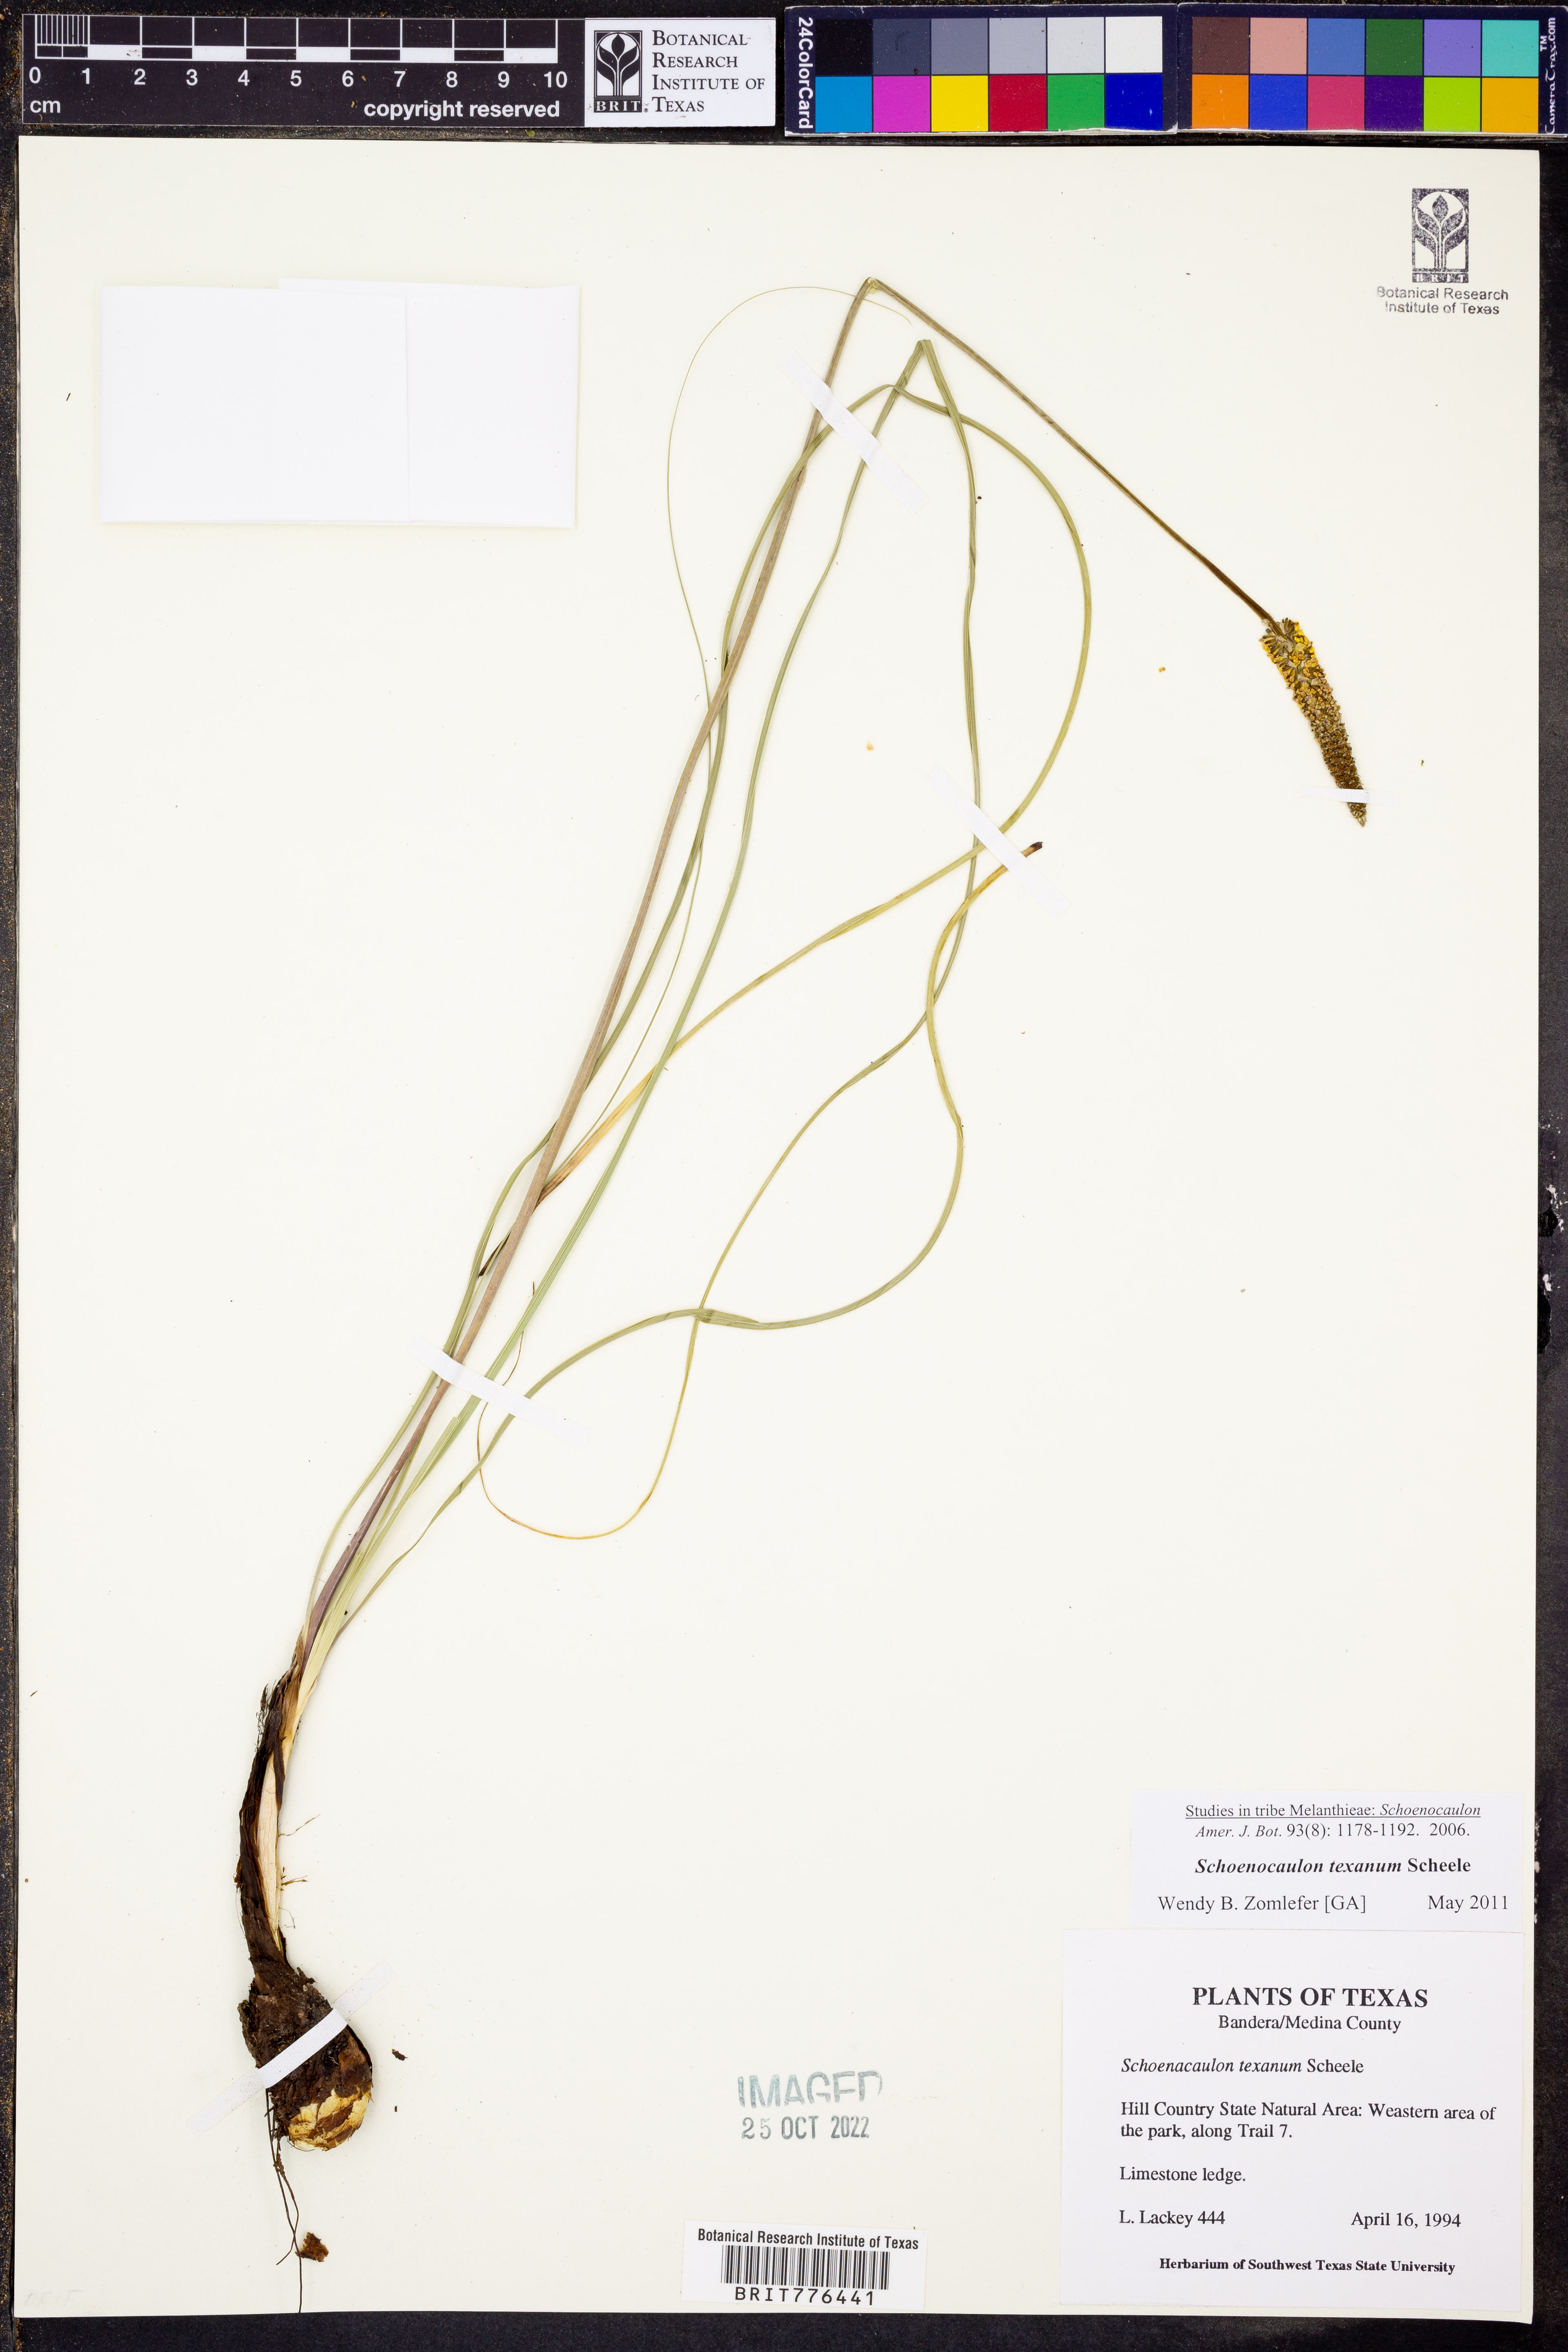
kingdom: Plantae
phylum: Tracheophyta
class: Liliopsida
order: Liliales
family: Melanthiaceae
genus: Schoenocaulon
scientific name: Schoenocaulon texanum
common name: Texas feather-shank
